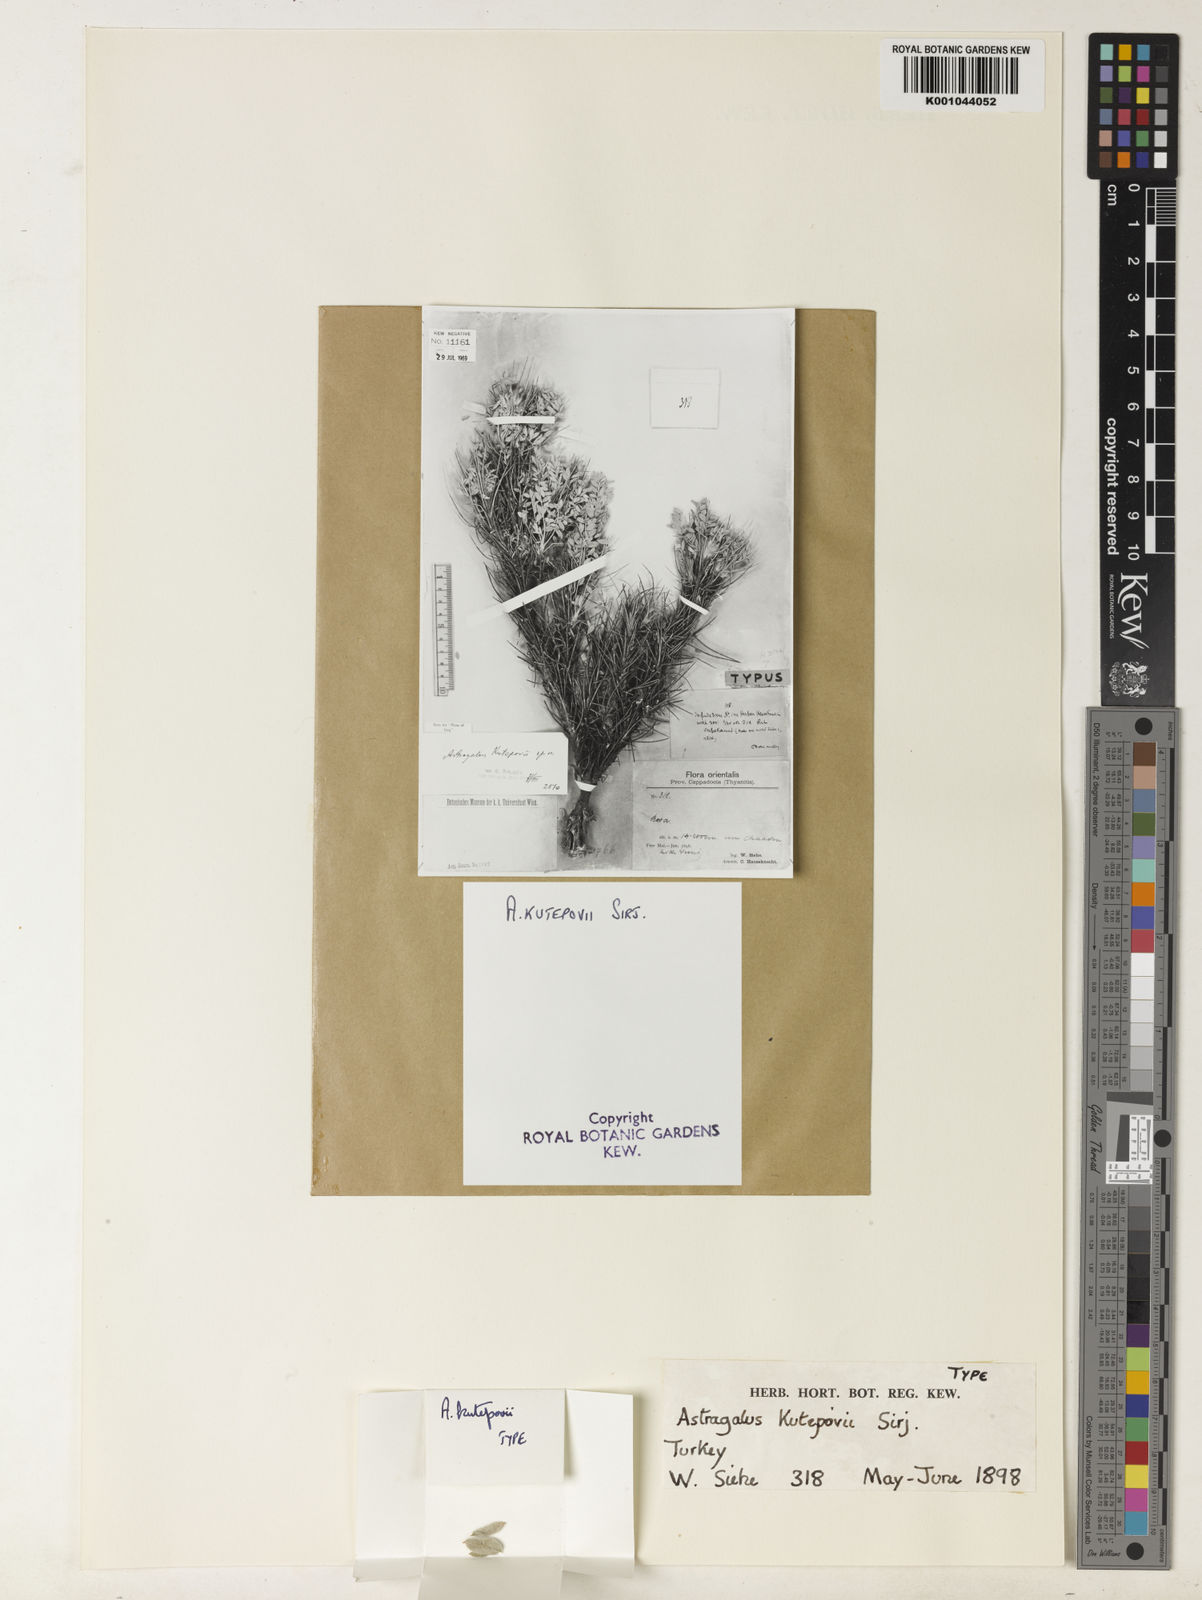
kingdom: Plantae
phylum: Tracheophyta
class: Magnoliopsida
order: Fabales
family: Fabaceae
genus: Astragalus
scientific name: Astragalus
